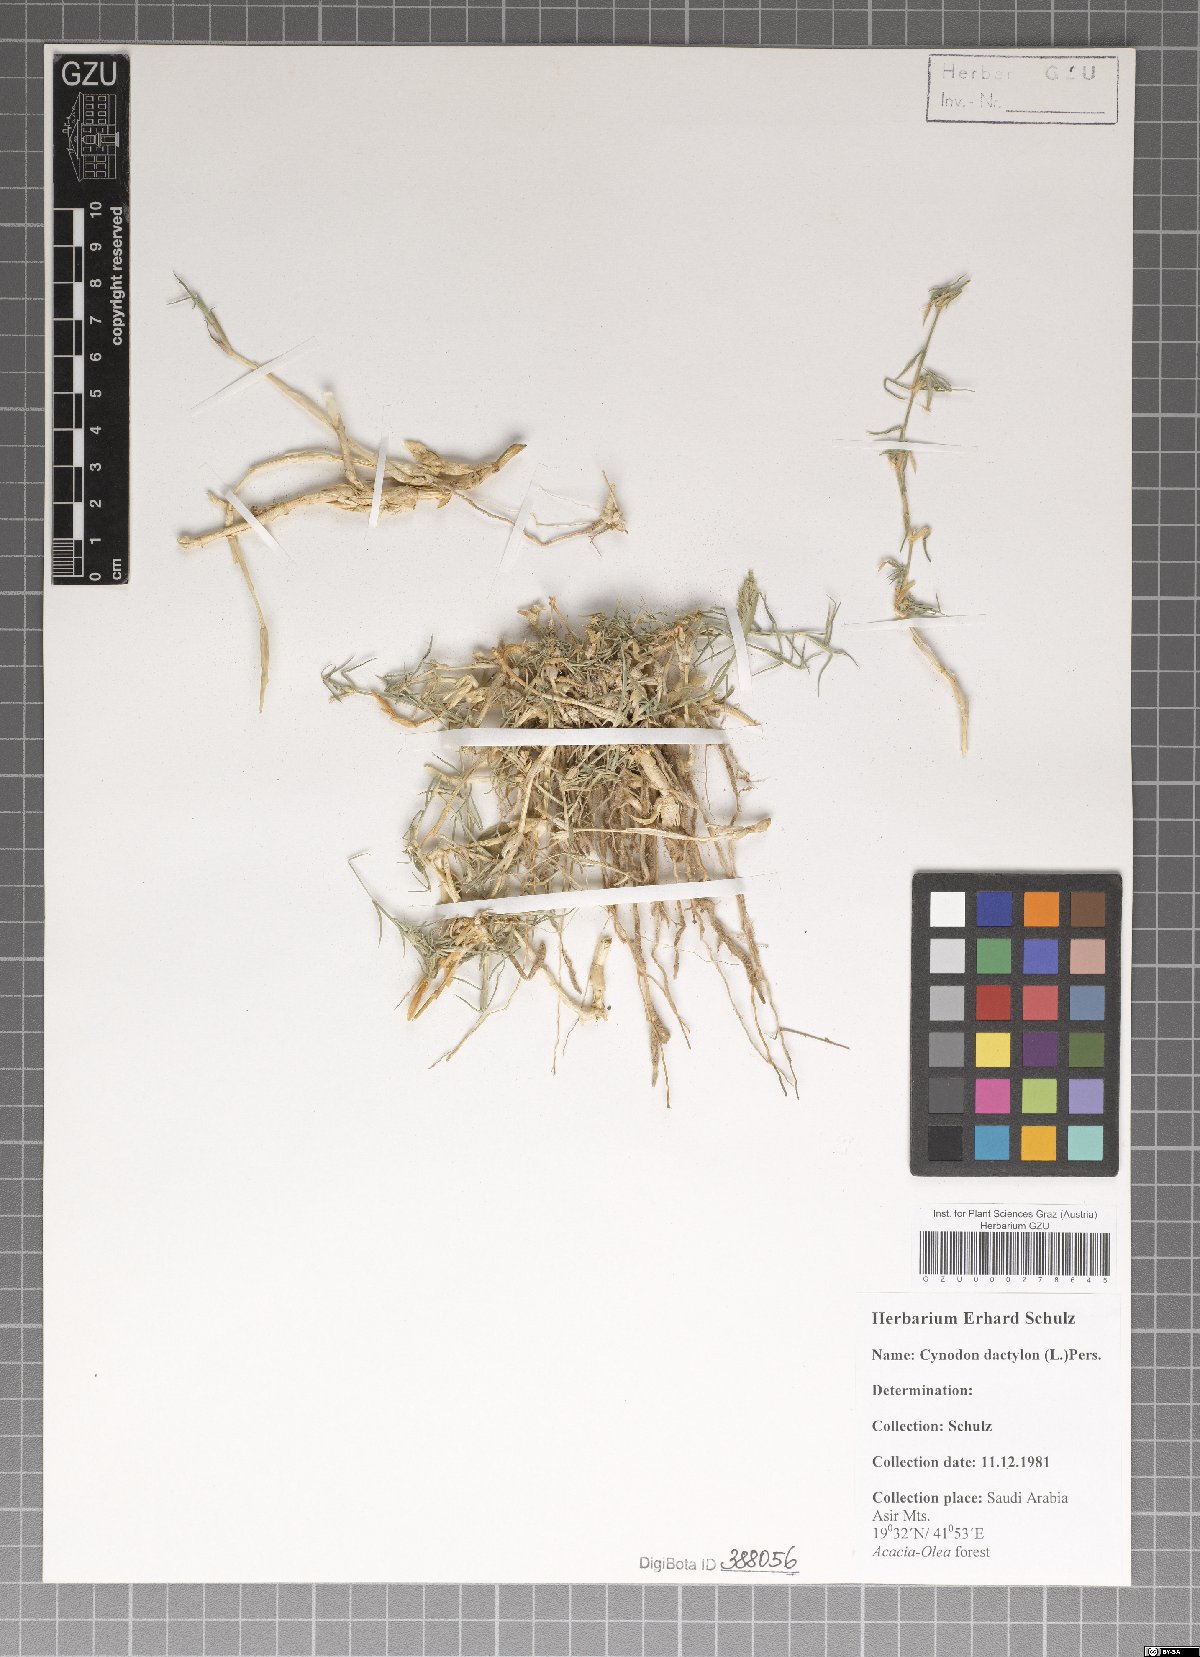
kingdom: Plantae
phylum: Tracheophyta
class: Liliopsida
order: Poales
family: Poaceae
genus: Cynodon
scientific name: Cynodon dactylon
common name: Bermuda grass
